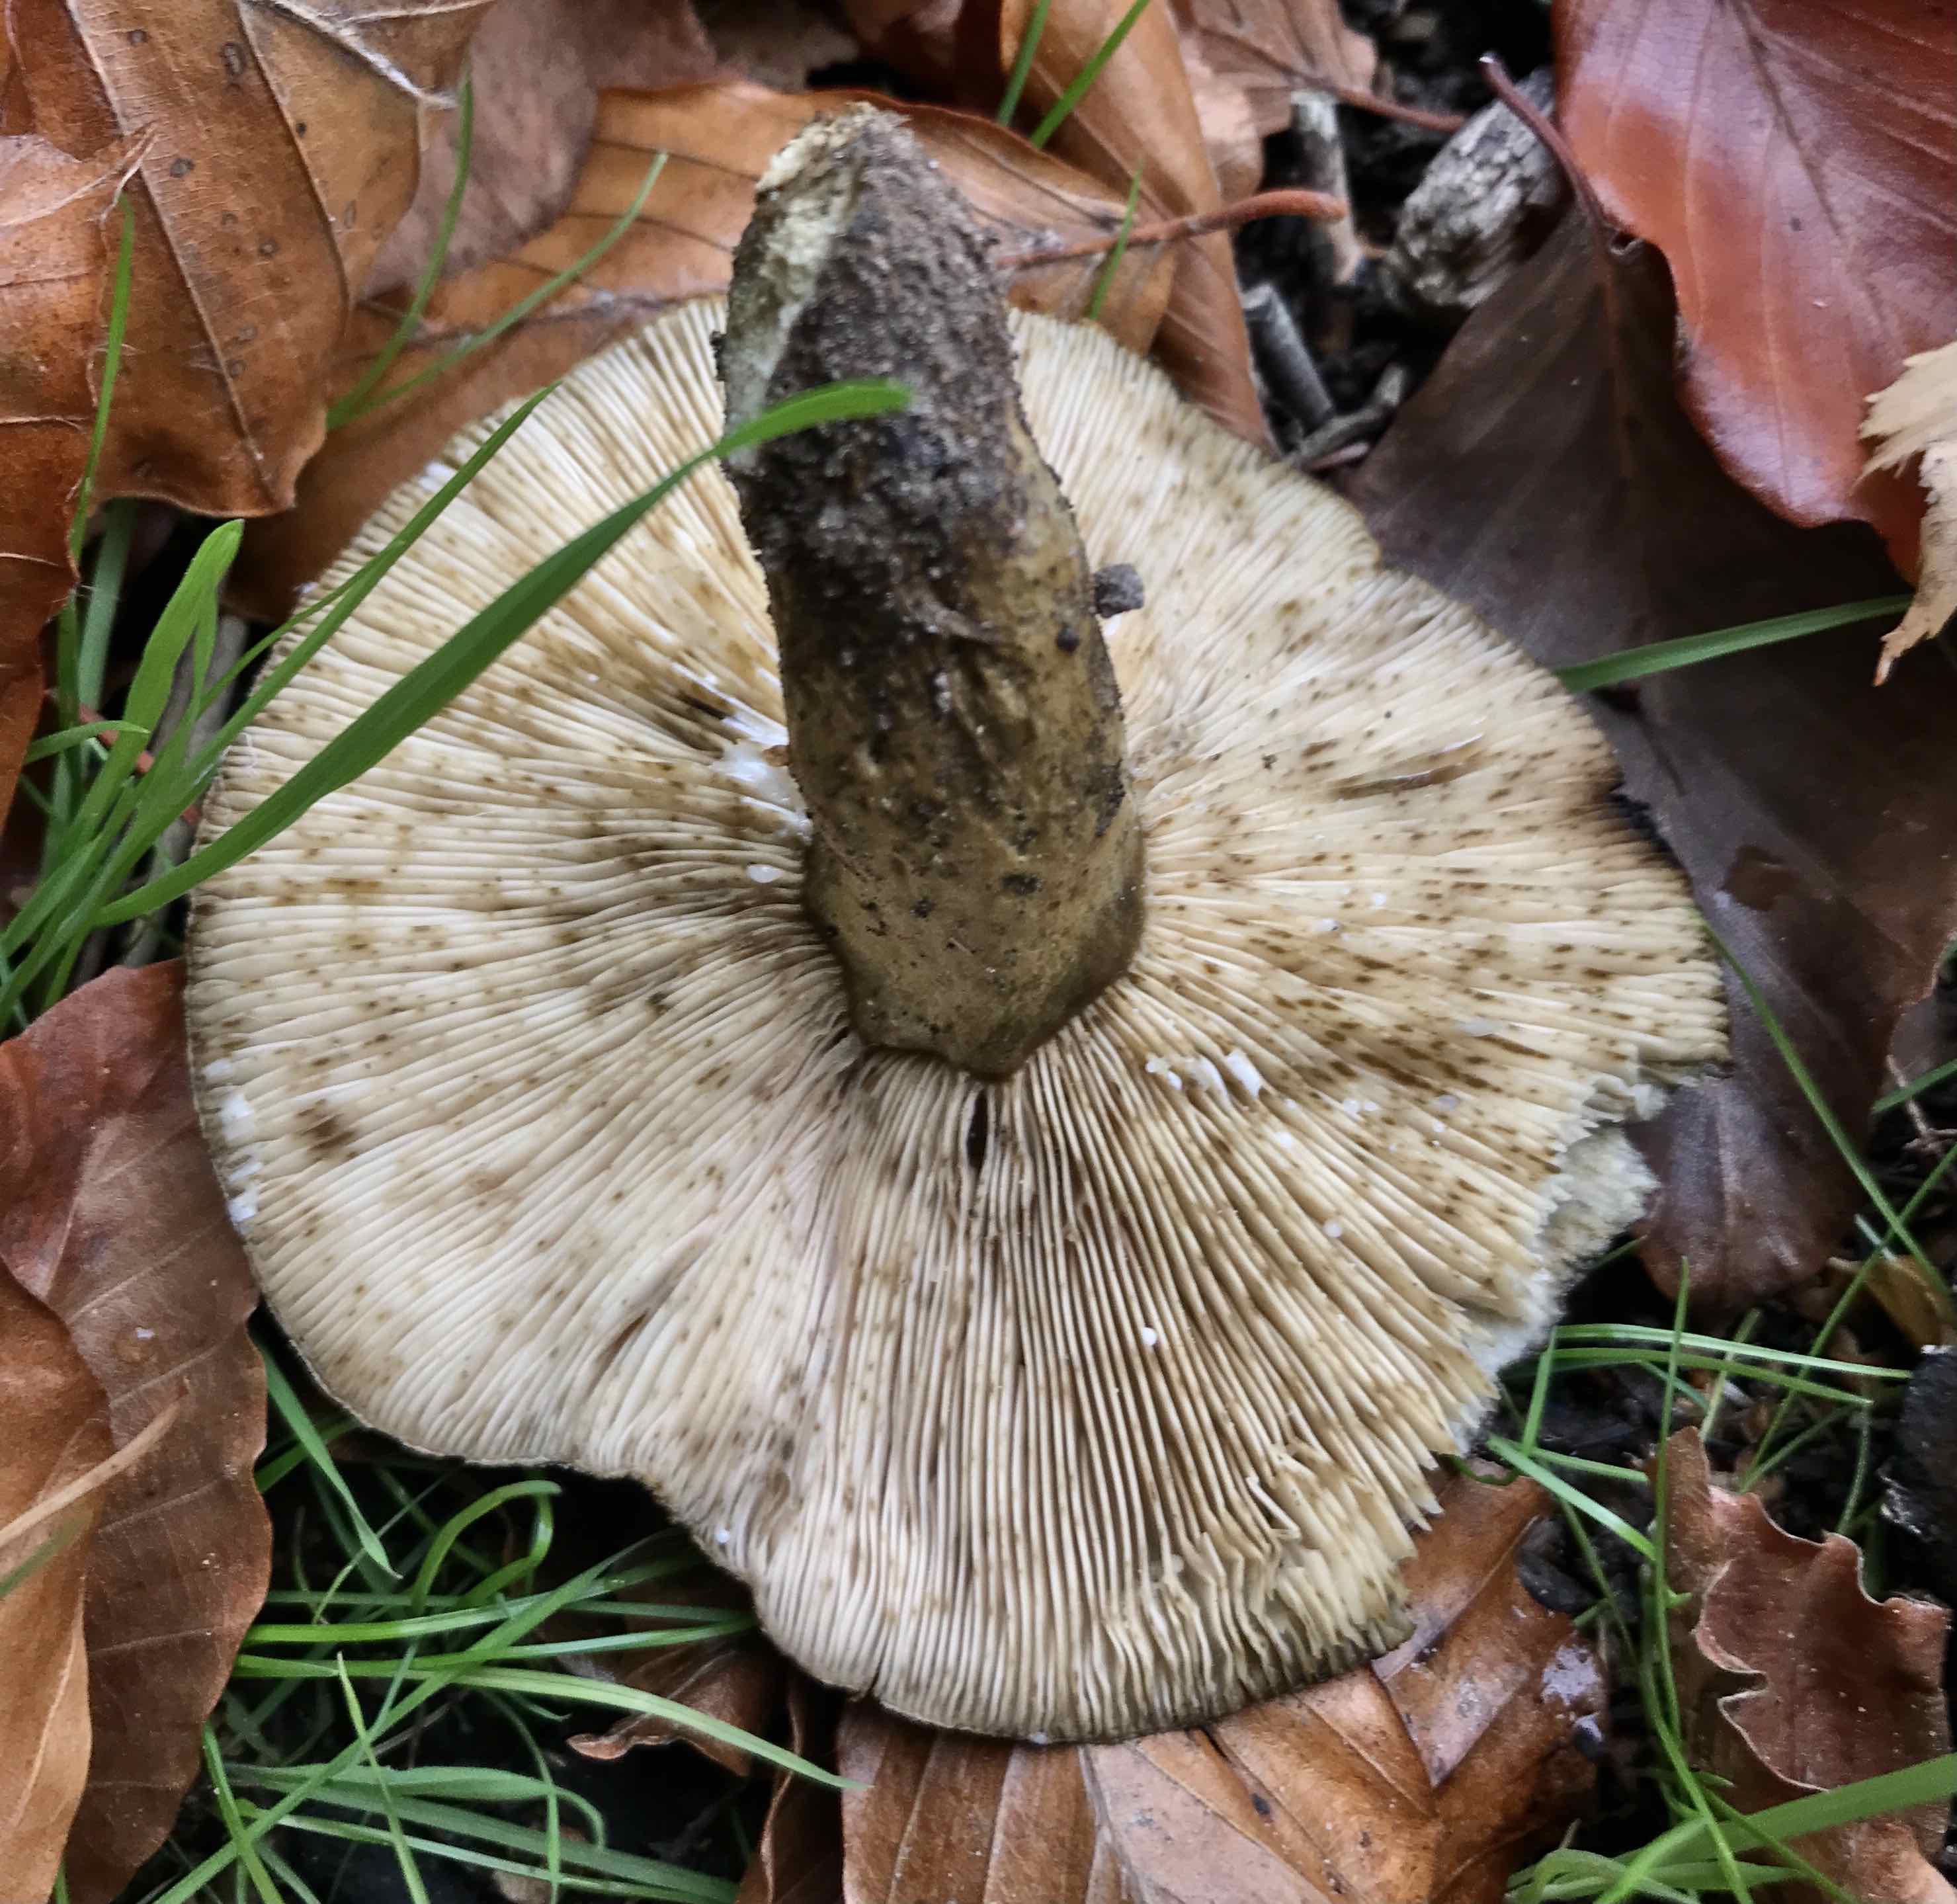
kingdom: Fungi
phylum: Basidiomycota
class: Agaricomycetes
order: Russulales
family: Russulaceae
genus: Lactarius
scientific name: Lactarius necator
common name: manddraber-mælkehat
